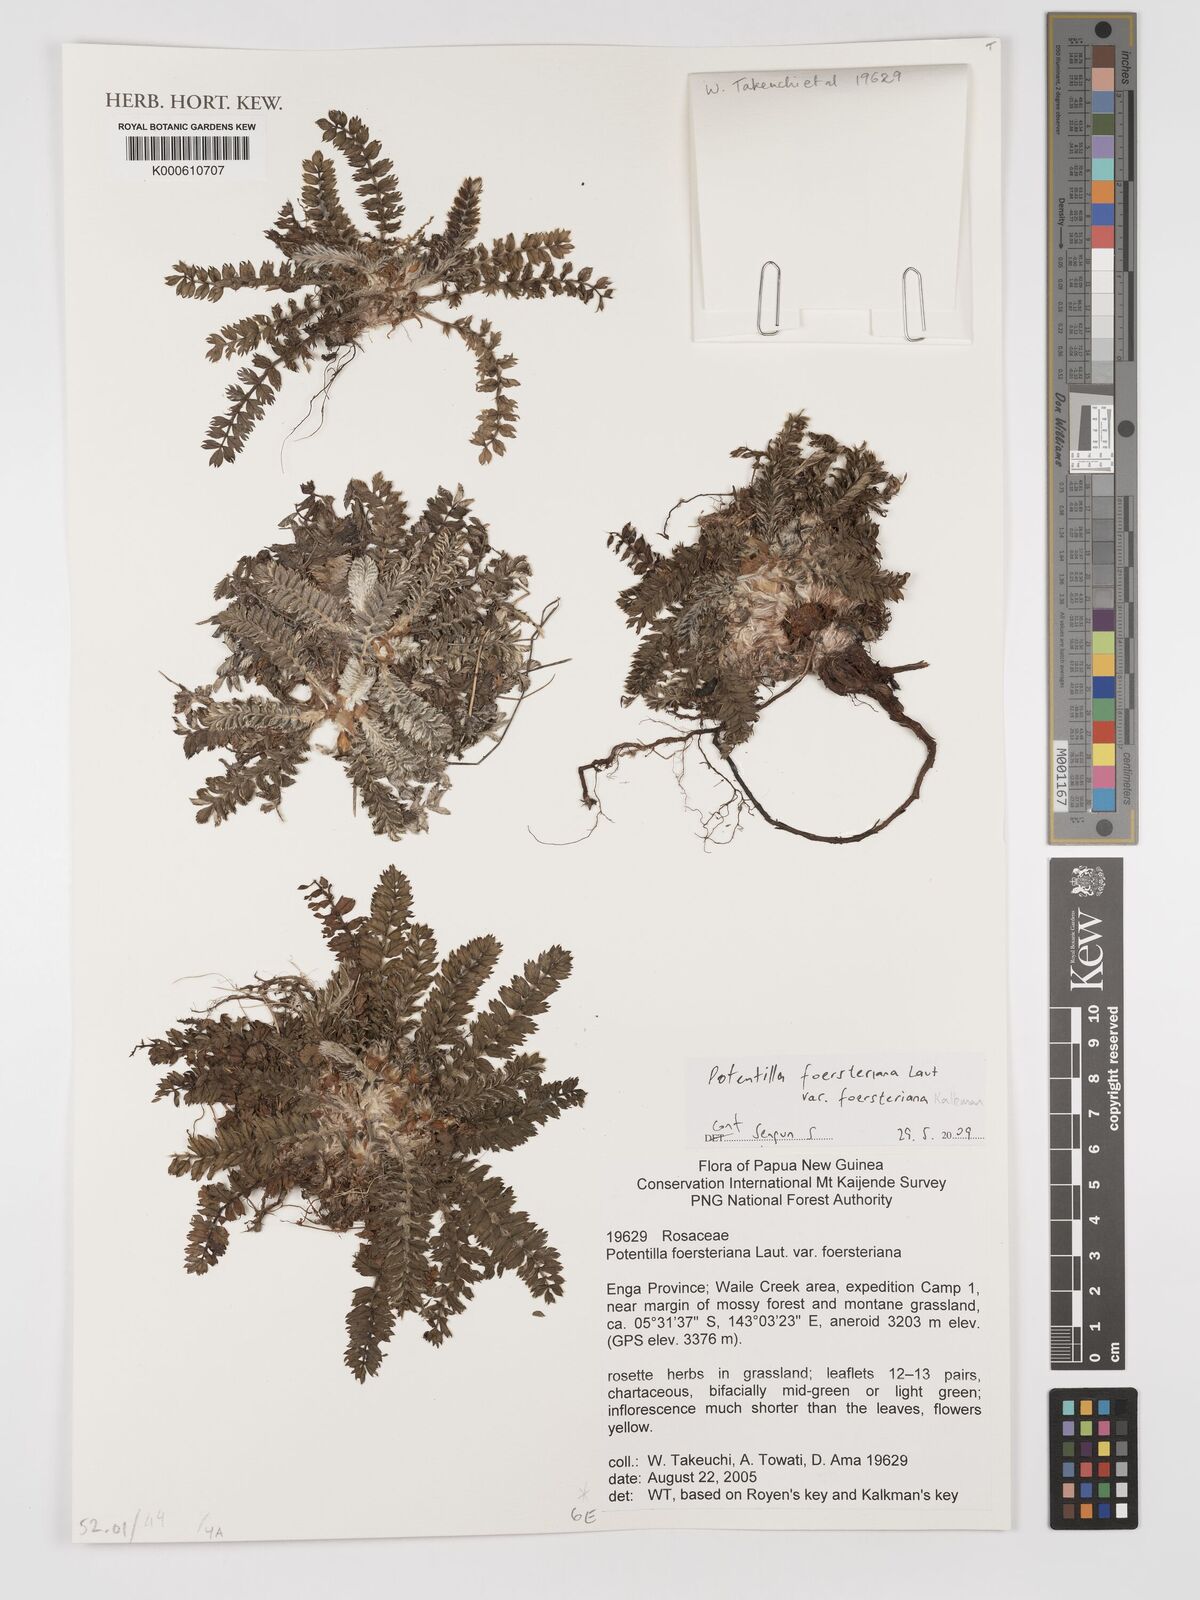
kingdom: Plantae
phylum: Tracheophyta
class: Magnoliopsida
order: Rosales
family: Rosaceae
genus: Potentilla
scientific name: Potentilla foersteriana
